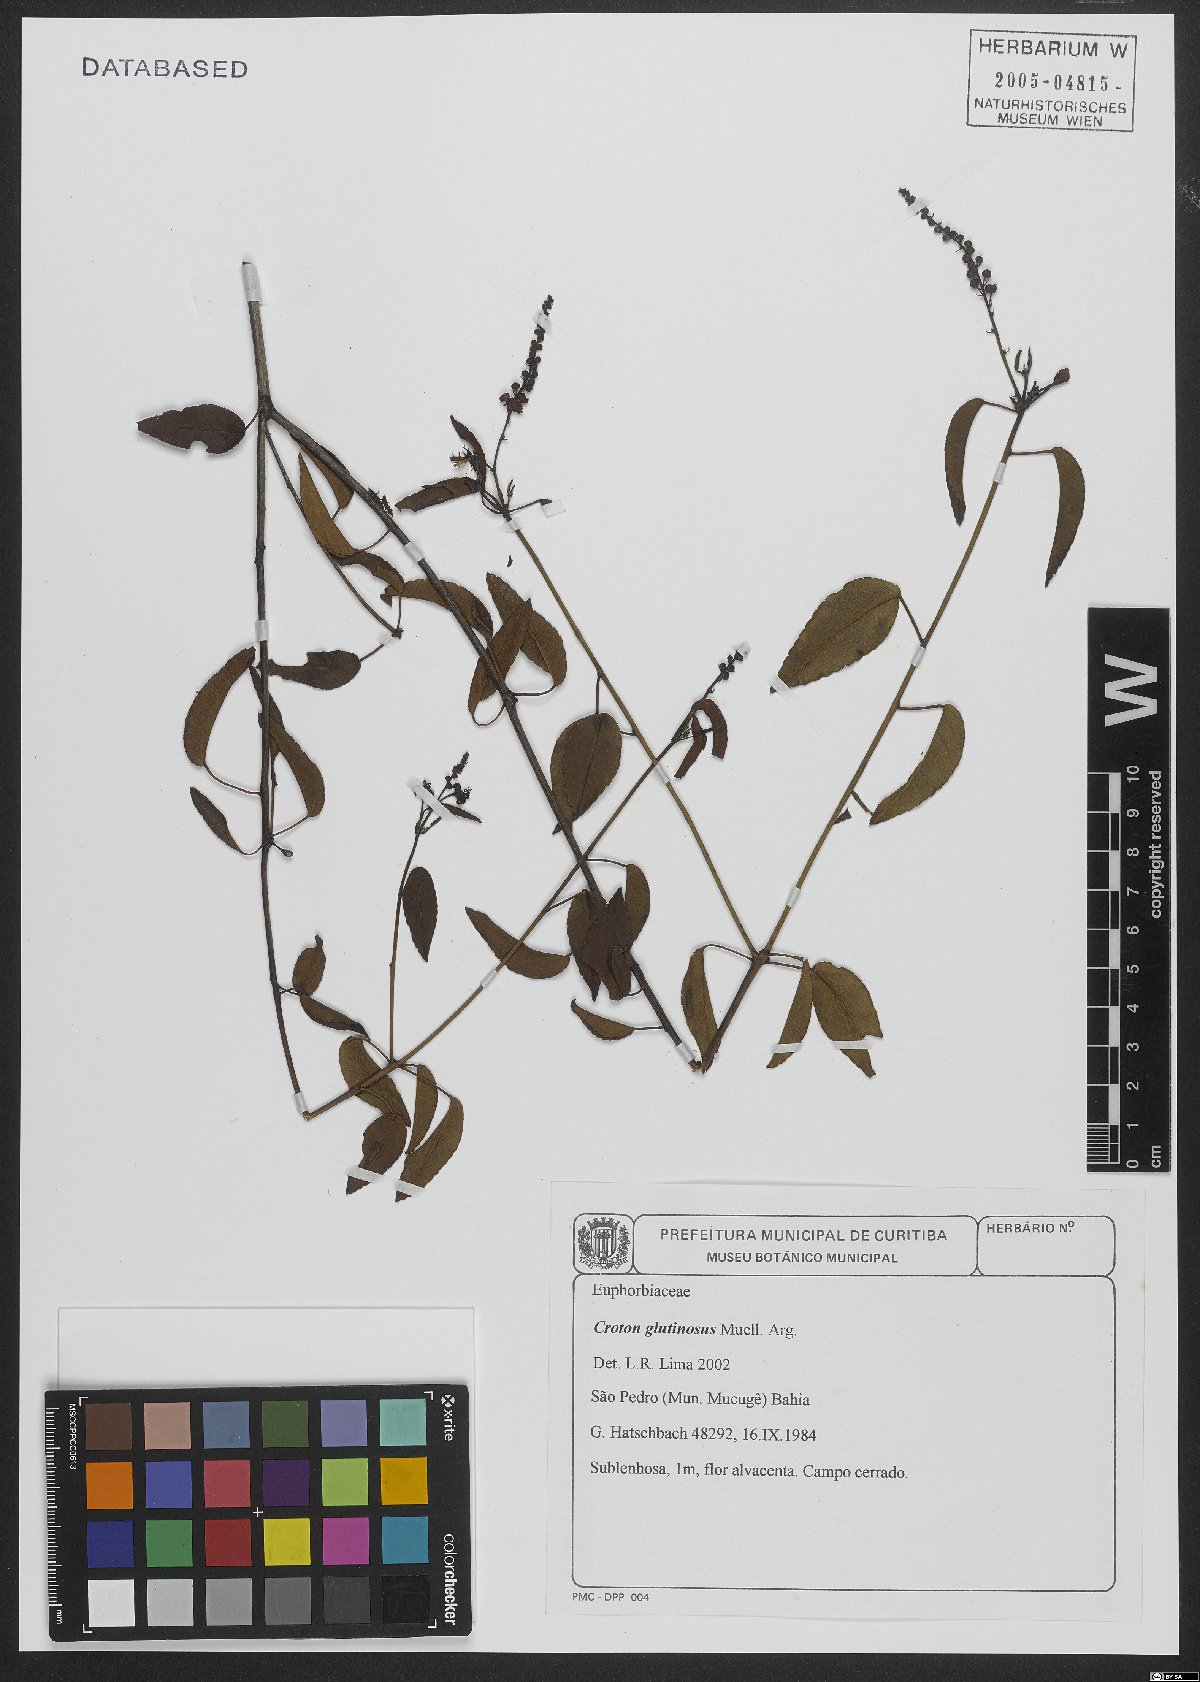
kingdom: Plantae
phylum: Tracheophyta
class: Magnoliopsida
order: Malpighiales
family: Euphorbiaceae
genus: Croton
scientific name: Croton glutinosus
